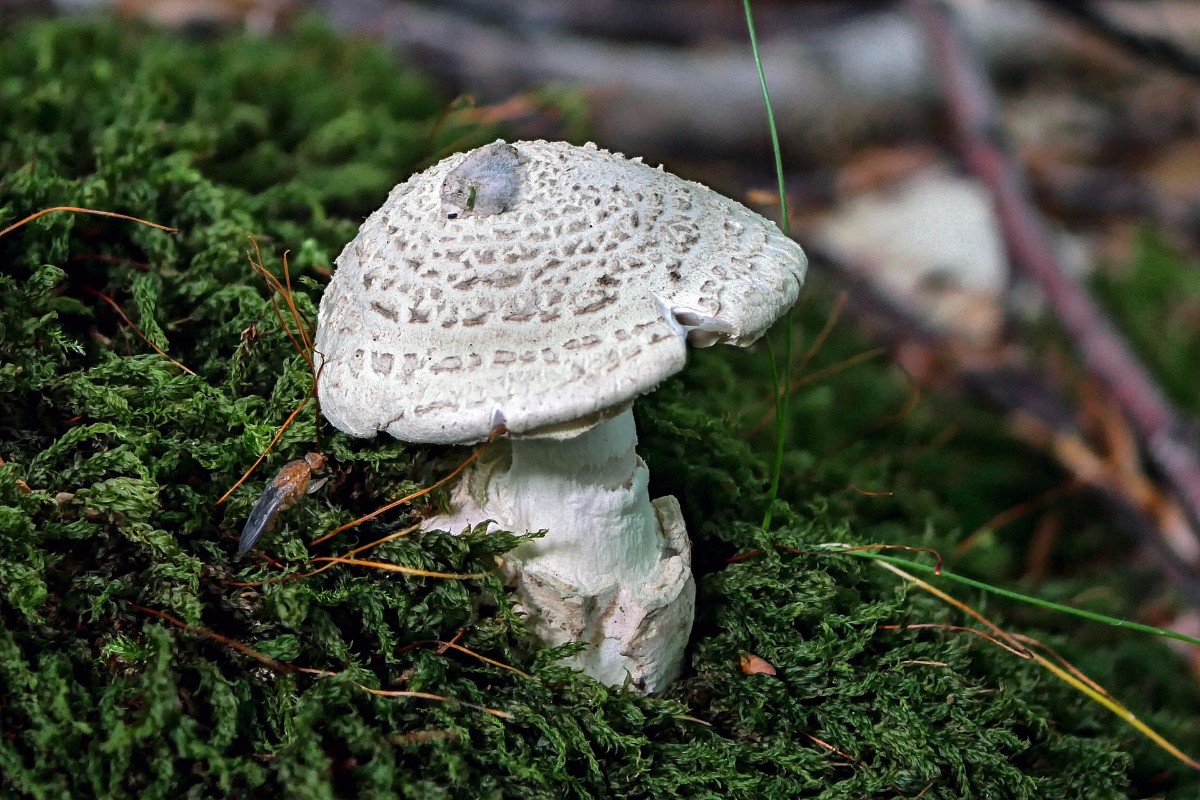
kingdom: Fungi
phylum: Basidiomycota
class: Agaricomycetes
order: Agaricales
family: Amanitaceae
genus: Amanita
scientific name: Amanita
